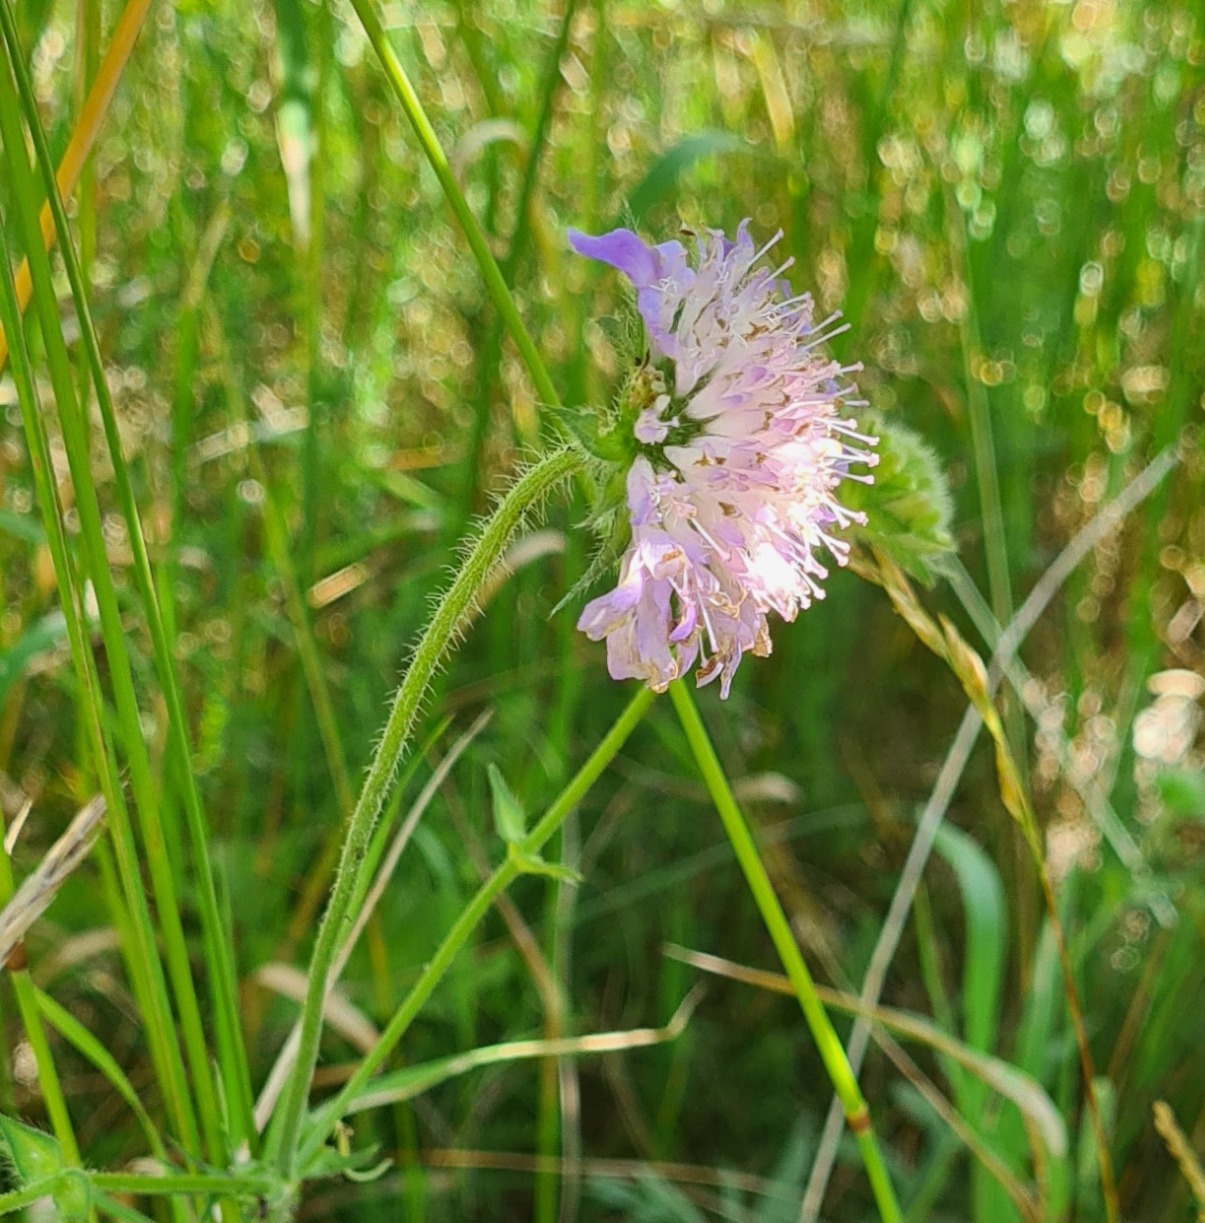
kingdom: Plantae
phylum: Tracheophyta
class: Magnoliopsida
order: Dipsacales
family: Caprifoliaceae
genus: Knautia
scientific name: Knautia arvensis
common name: Blåhat
